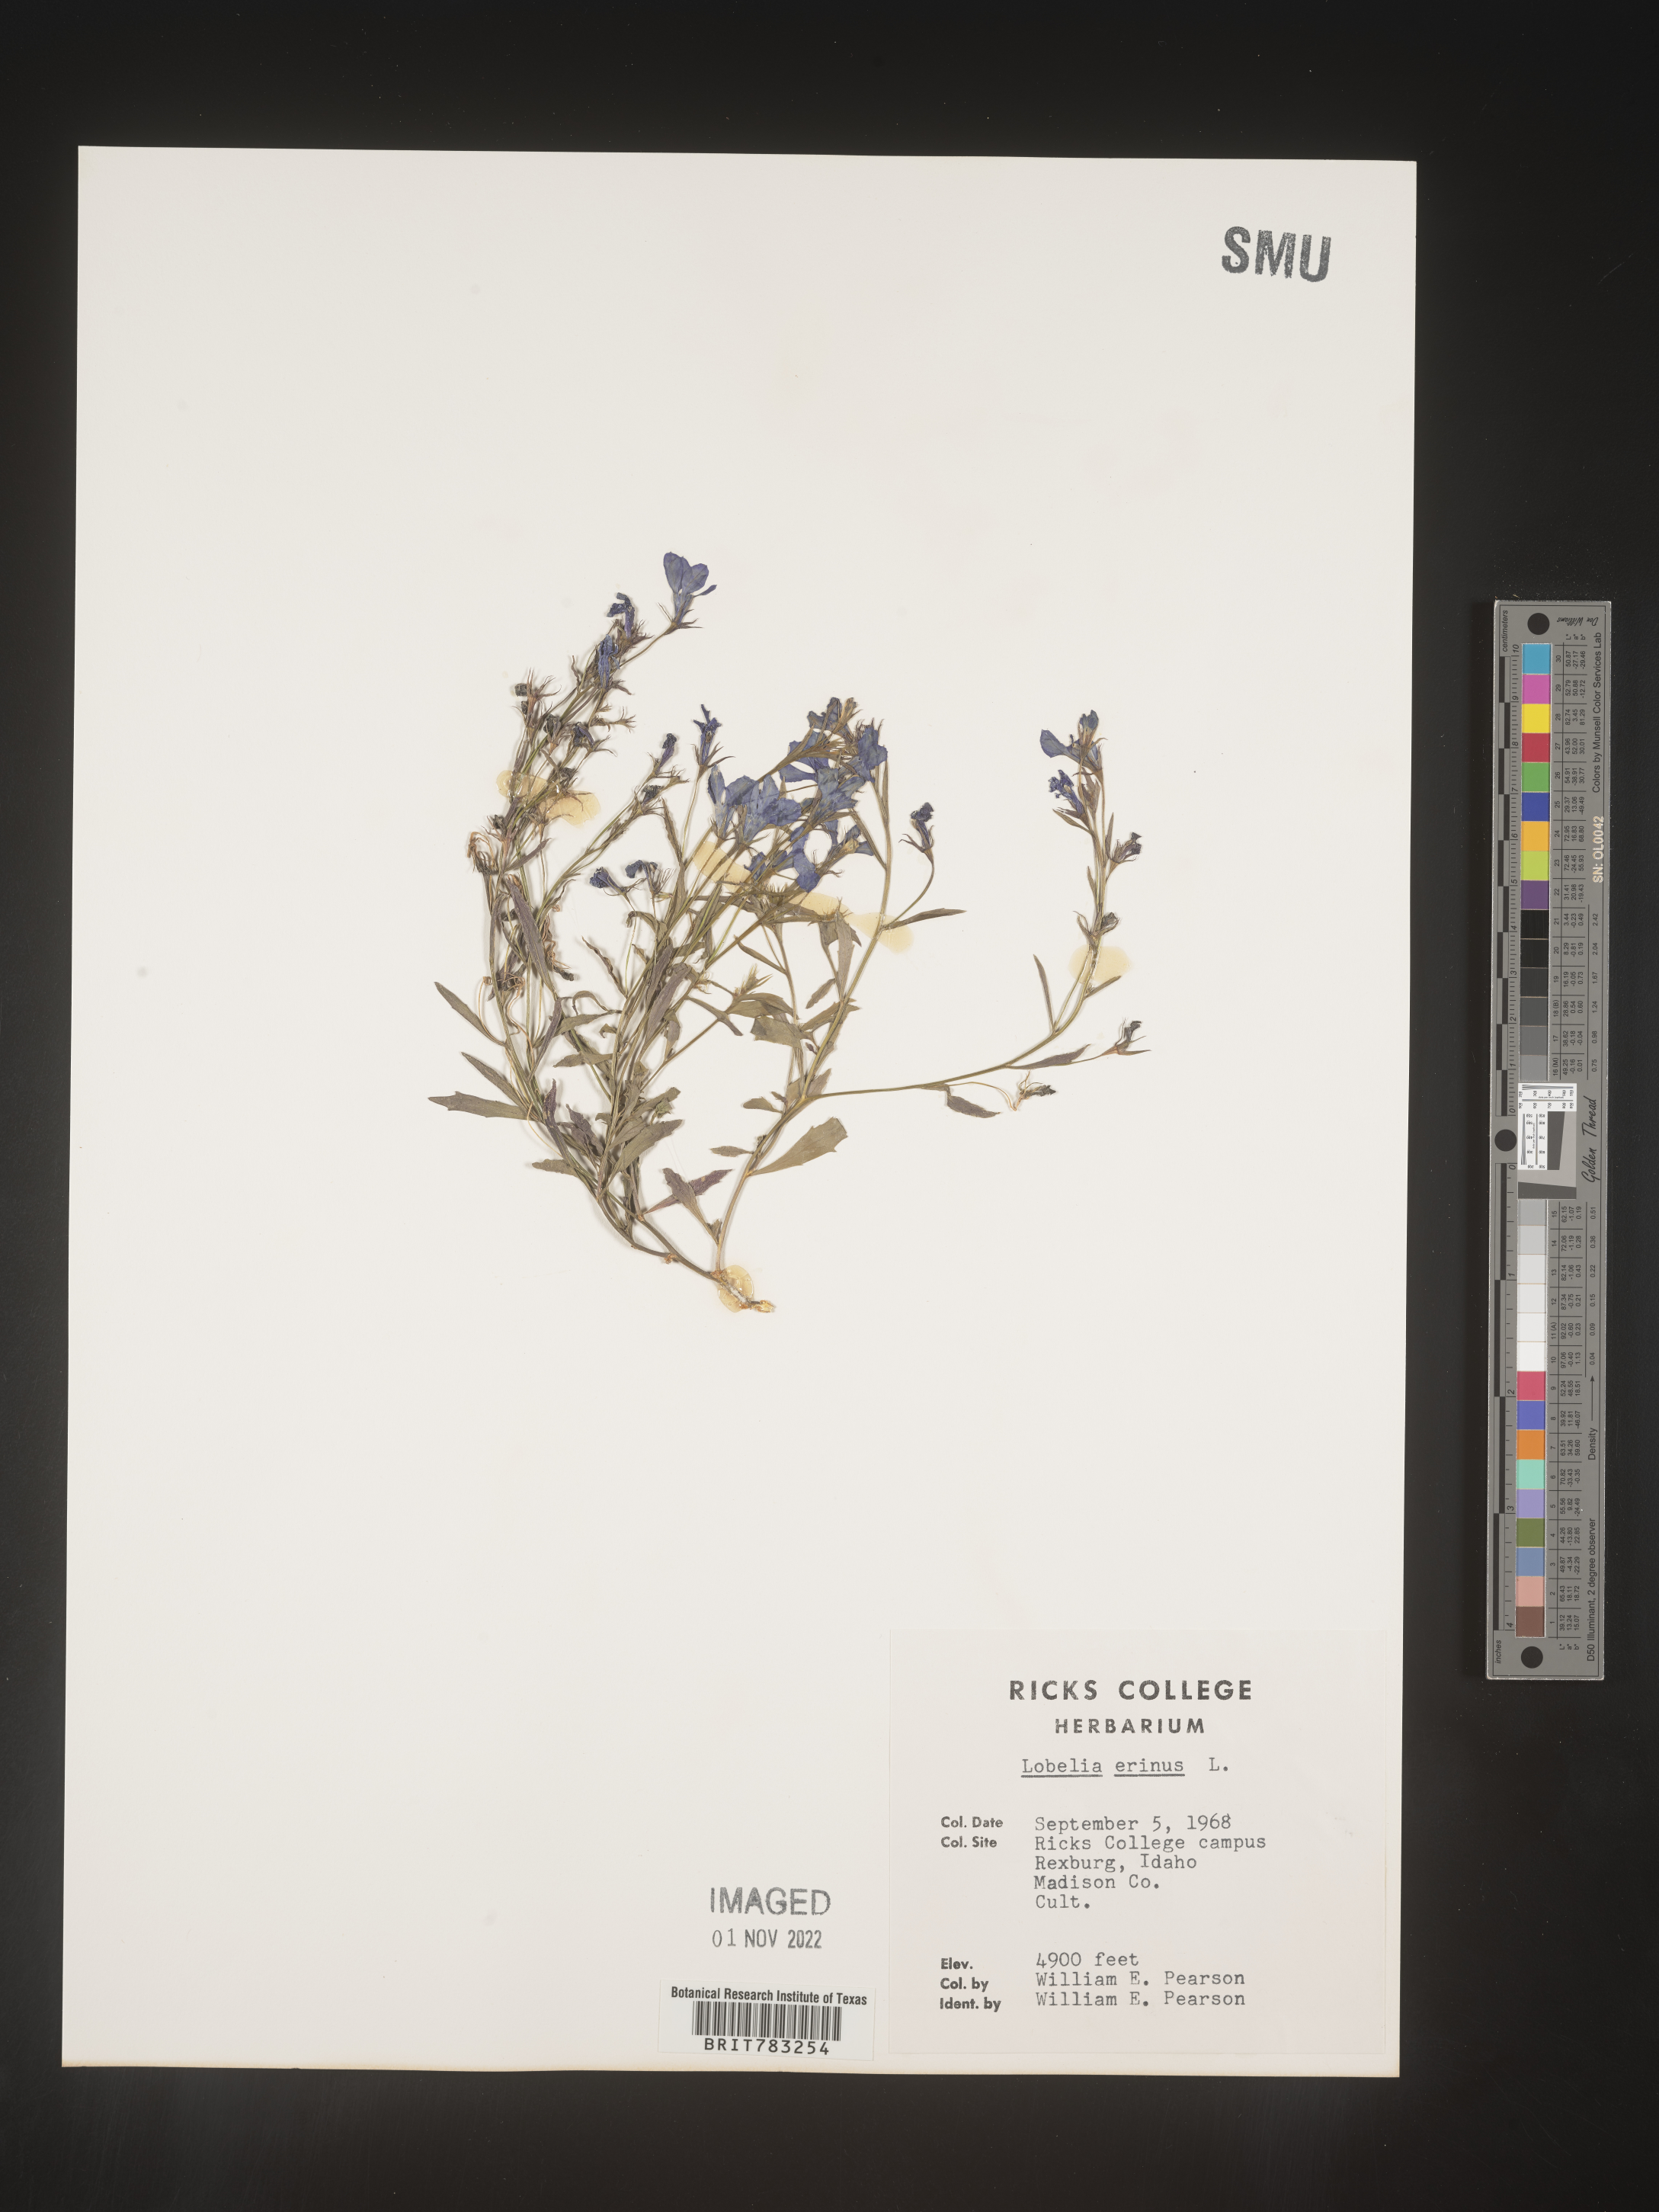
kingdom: Plantae
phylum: Tracheophyta
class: Magnoliopsida
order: Asterales
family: Campanulaceae
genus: Lobelia
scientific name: Lobelia
